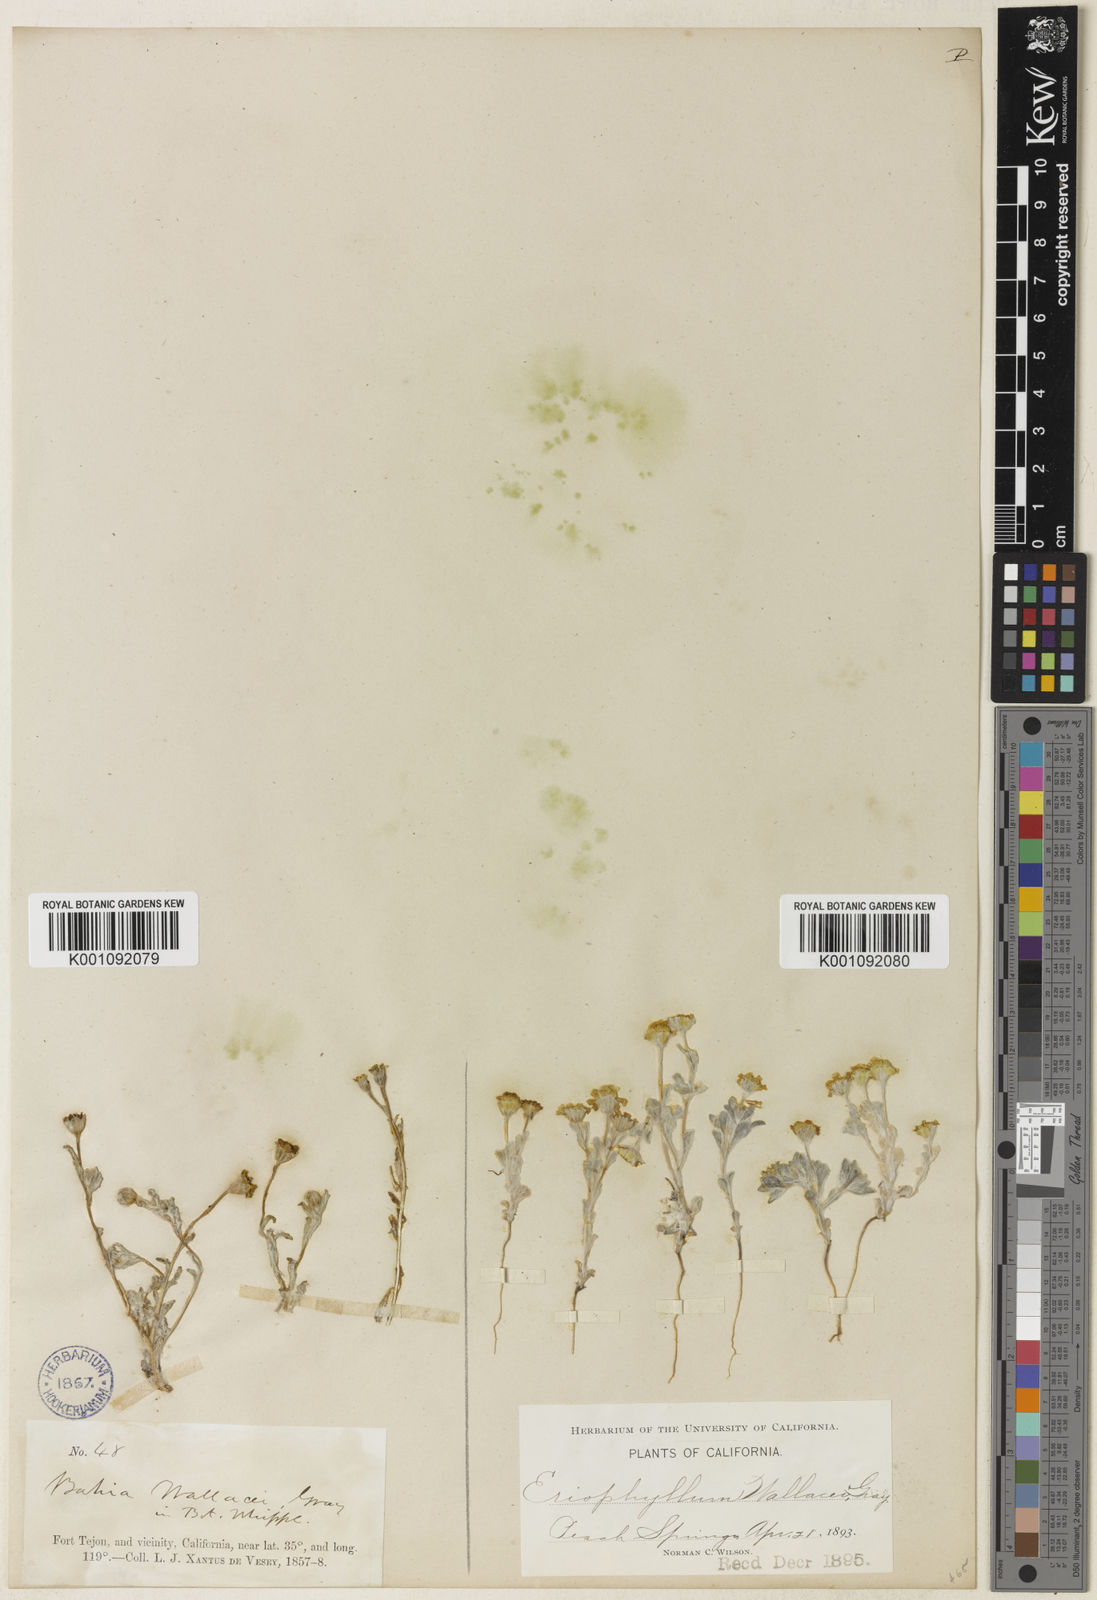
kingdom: Plantae
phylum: Tracheophyta
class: Magnoliopsida
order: Asterales
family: Asteraceae
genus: Eriophyllum
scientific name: Eriophyllum wallacei
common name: Wallace's woolly daisy
